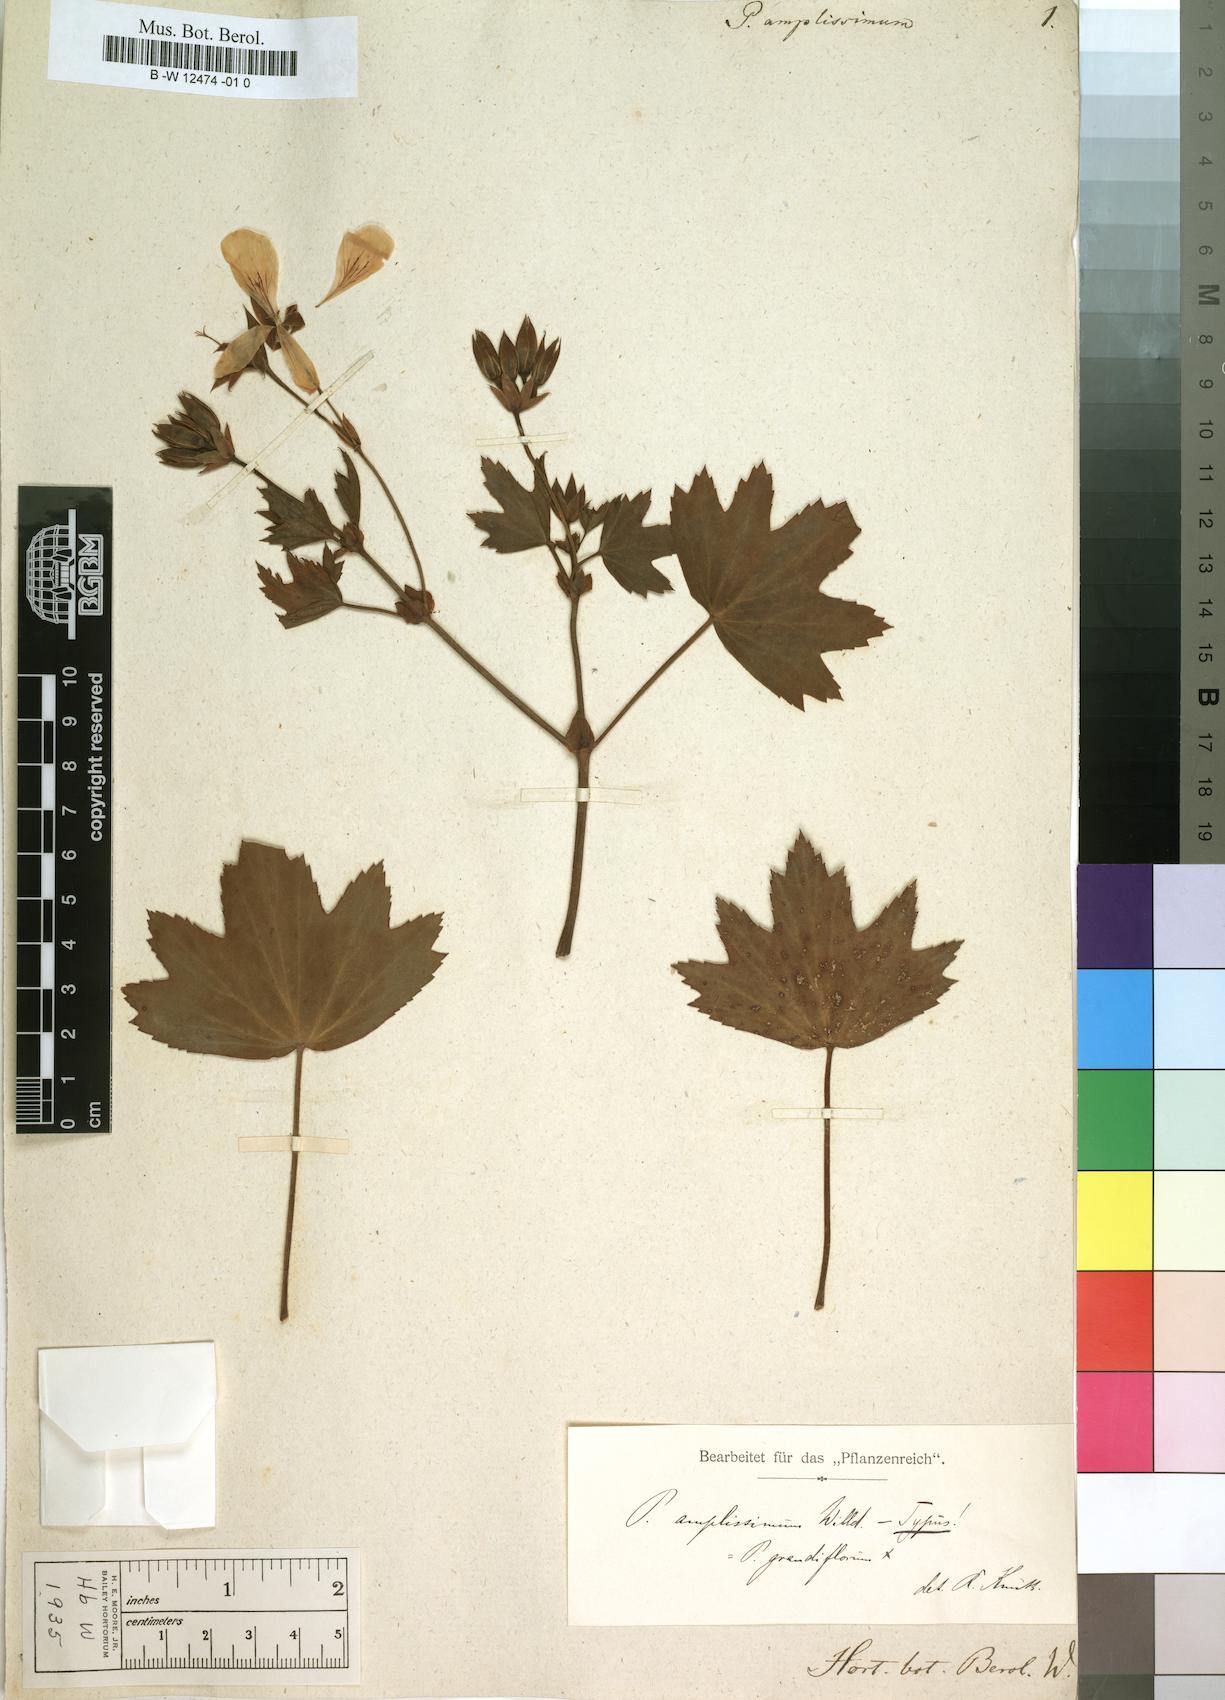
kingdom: Plantae
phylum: Tracheophyta
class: Magnoliopsida
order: Geraniales
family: Geraniaceae
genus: Pelargonium
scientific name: Pelargonium amplissimum
